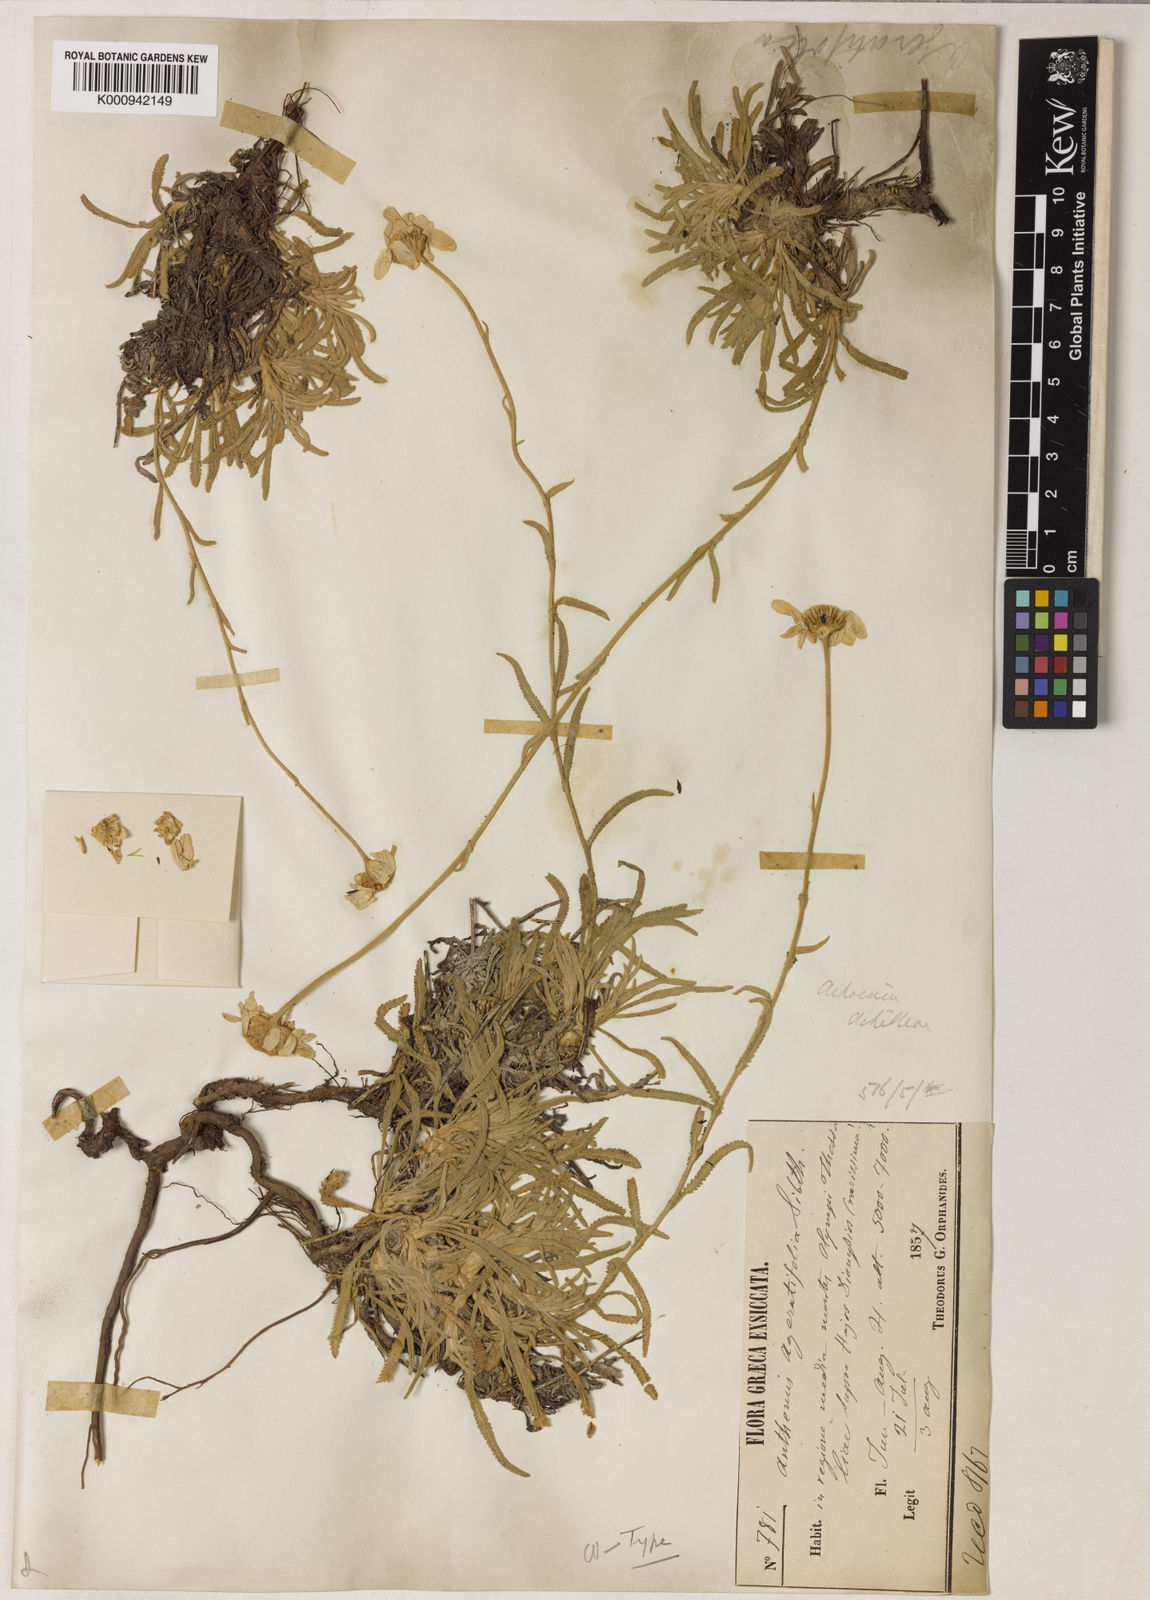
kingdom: Plantae
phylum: Tracheophyta
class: Magnoliopsida
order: Asterales
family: Asteraceae
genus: Achillea
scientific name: Achillea
